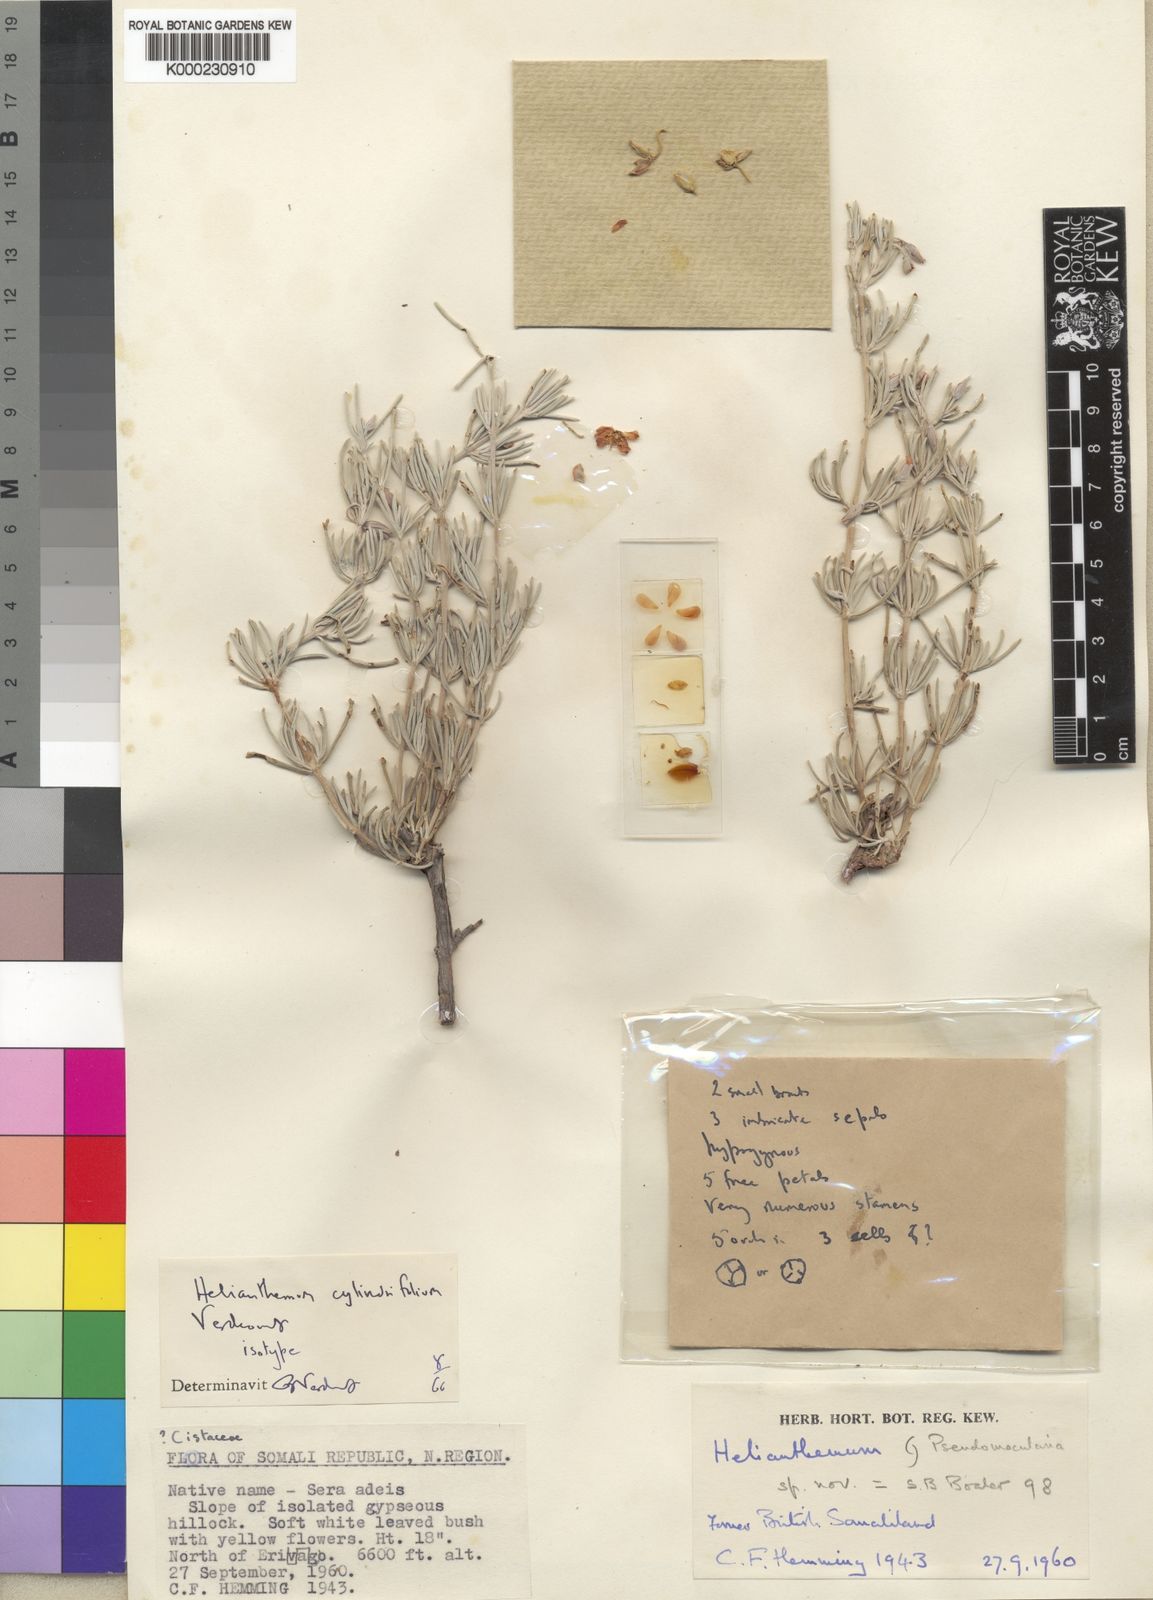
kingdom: Plantae
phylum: Tracheophyta
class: Magnoliopsida
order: Malvales
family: Cistaceae
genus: Helianthemum
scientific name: Helianthemum cylindrifolium
